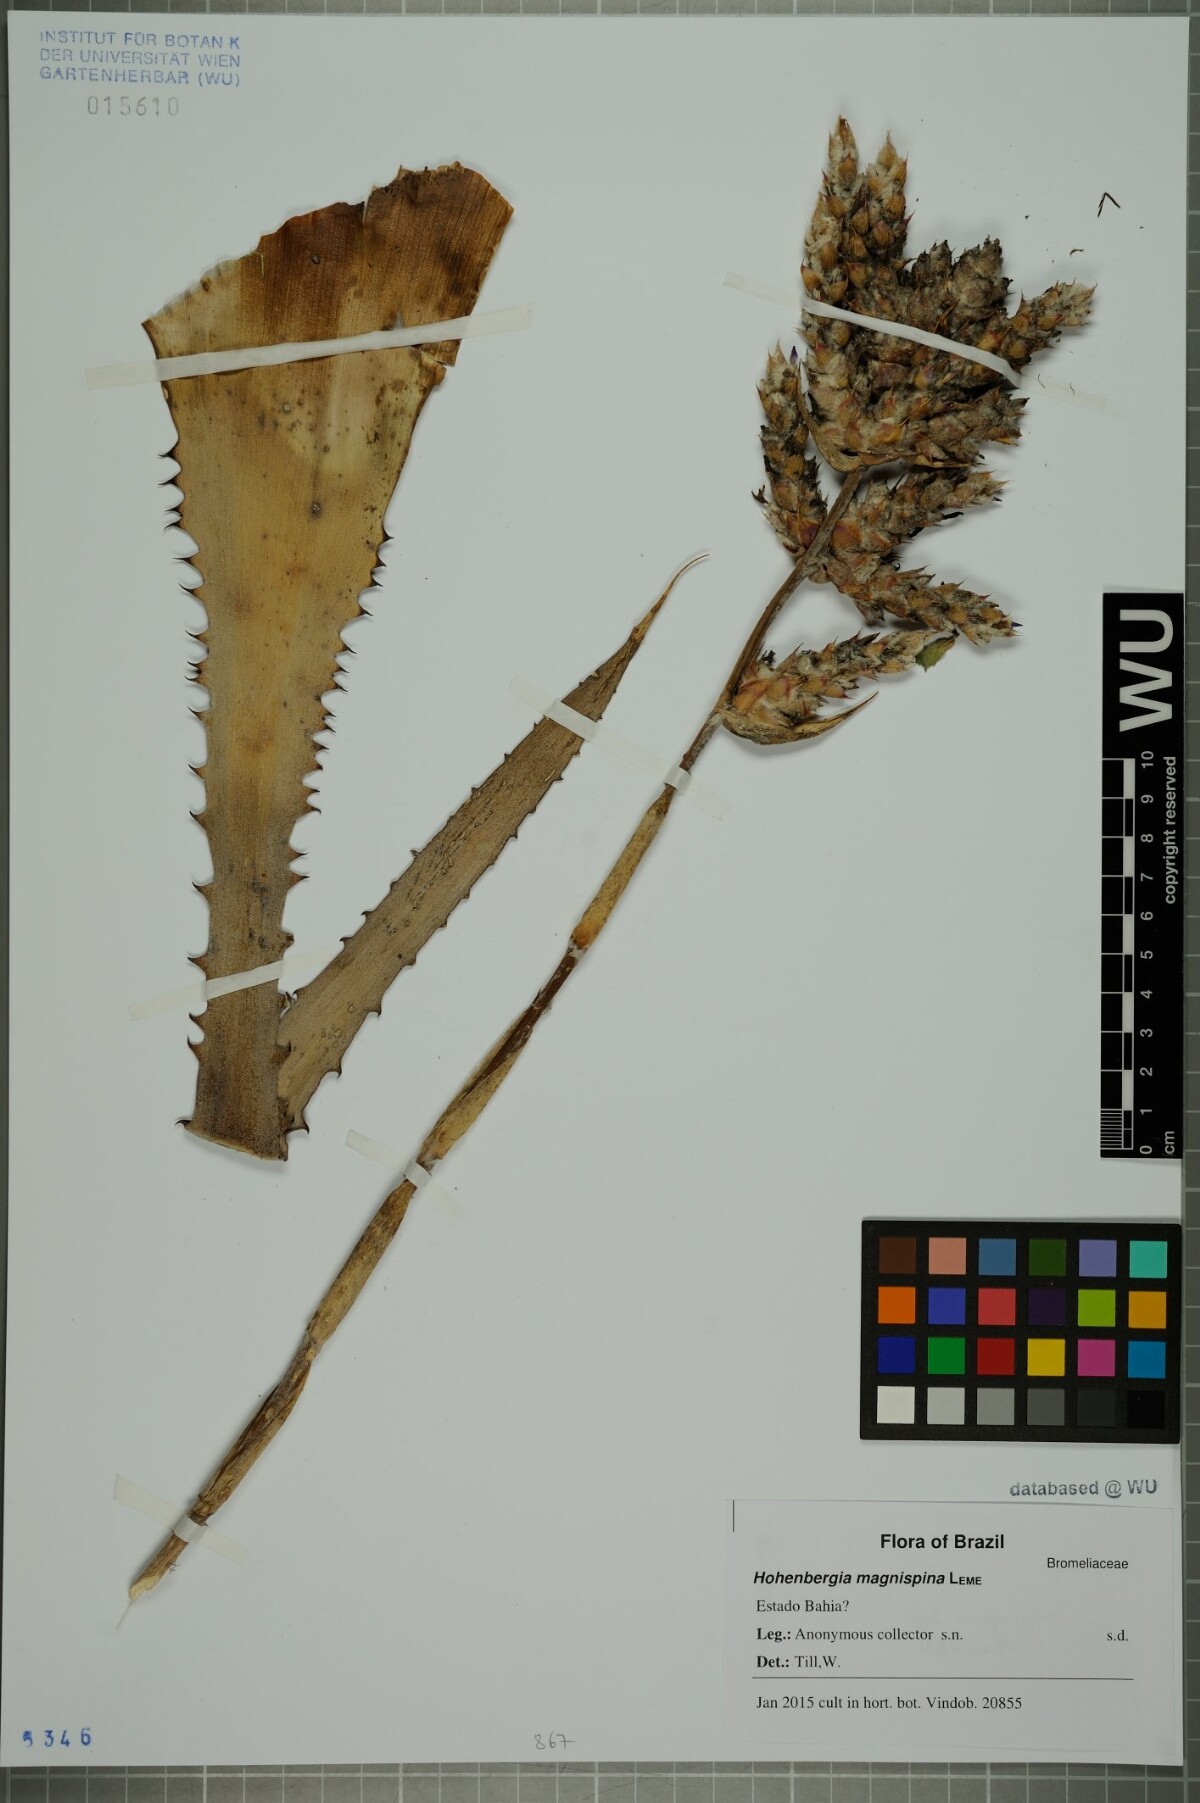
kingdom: Plantae
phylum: Tracheophyta
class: Liliopsida
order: Poales
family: Bromeliaceae
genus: Hohenbergia
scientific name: Hohenbergia magnispina
